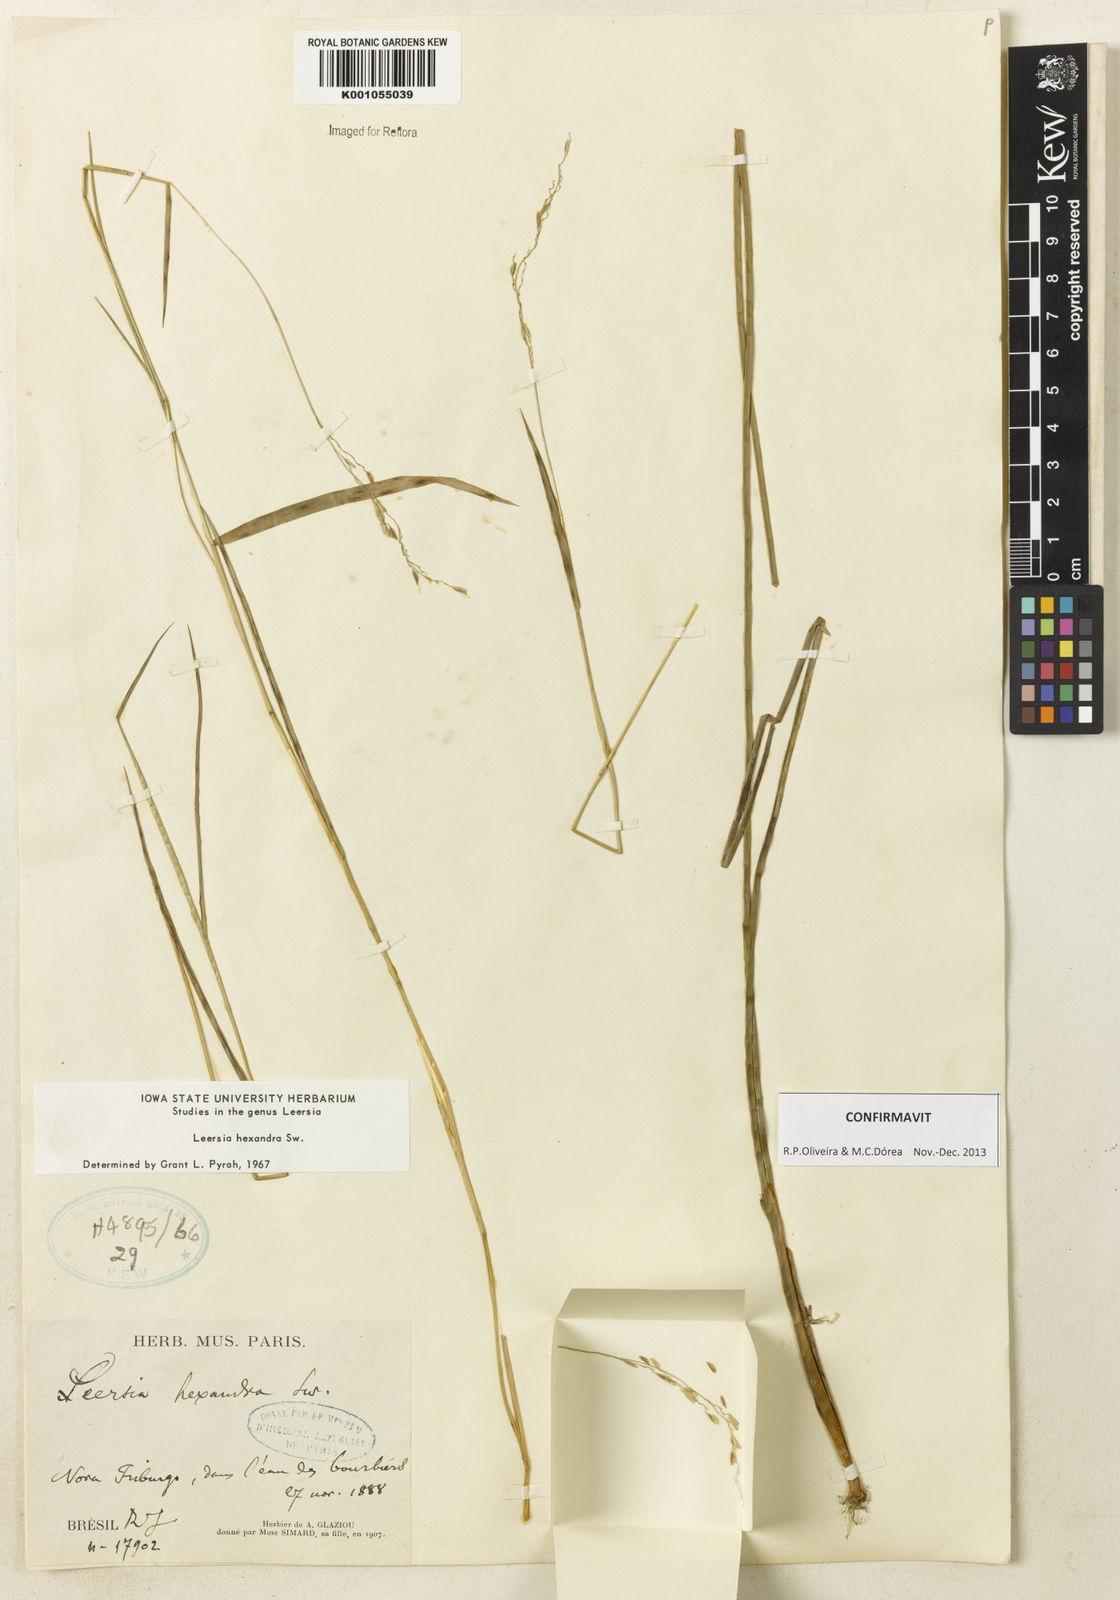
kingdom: Plantae
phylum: Tracheophyta
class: Liliopsida
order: Poales
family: Poaceae
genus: Leersia
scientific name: Leersia hexandra
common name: Southern cut grass
